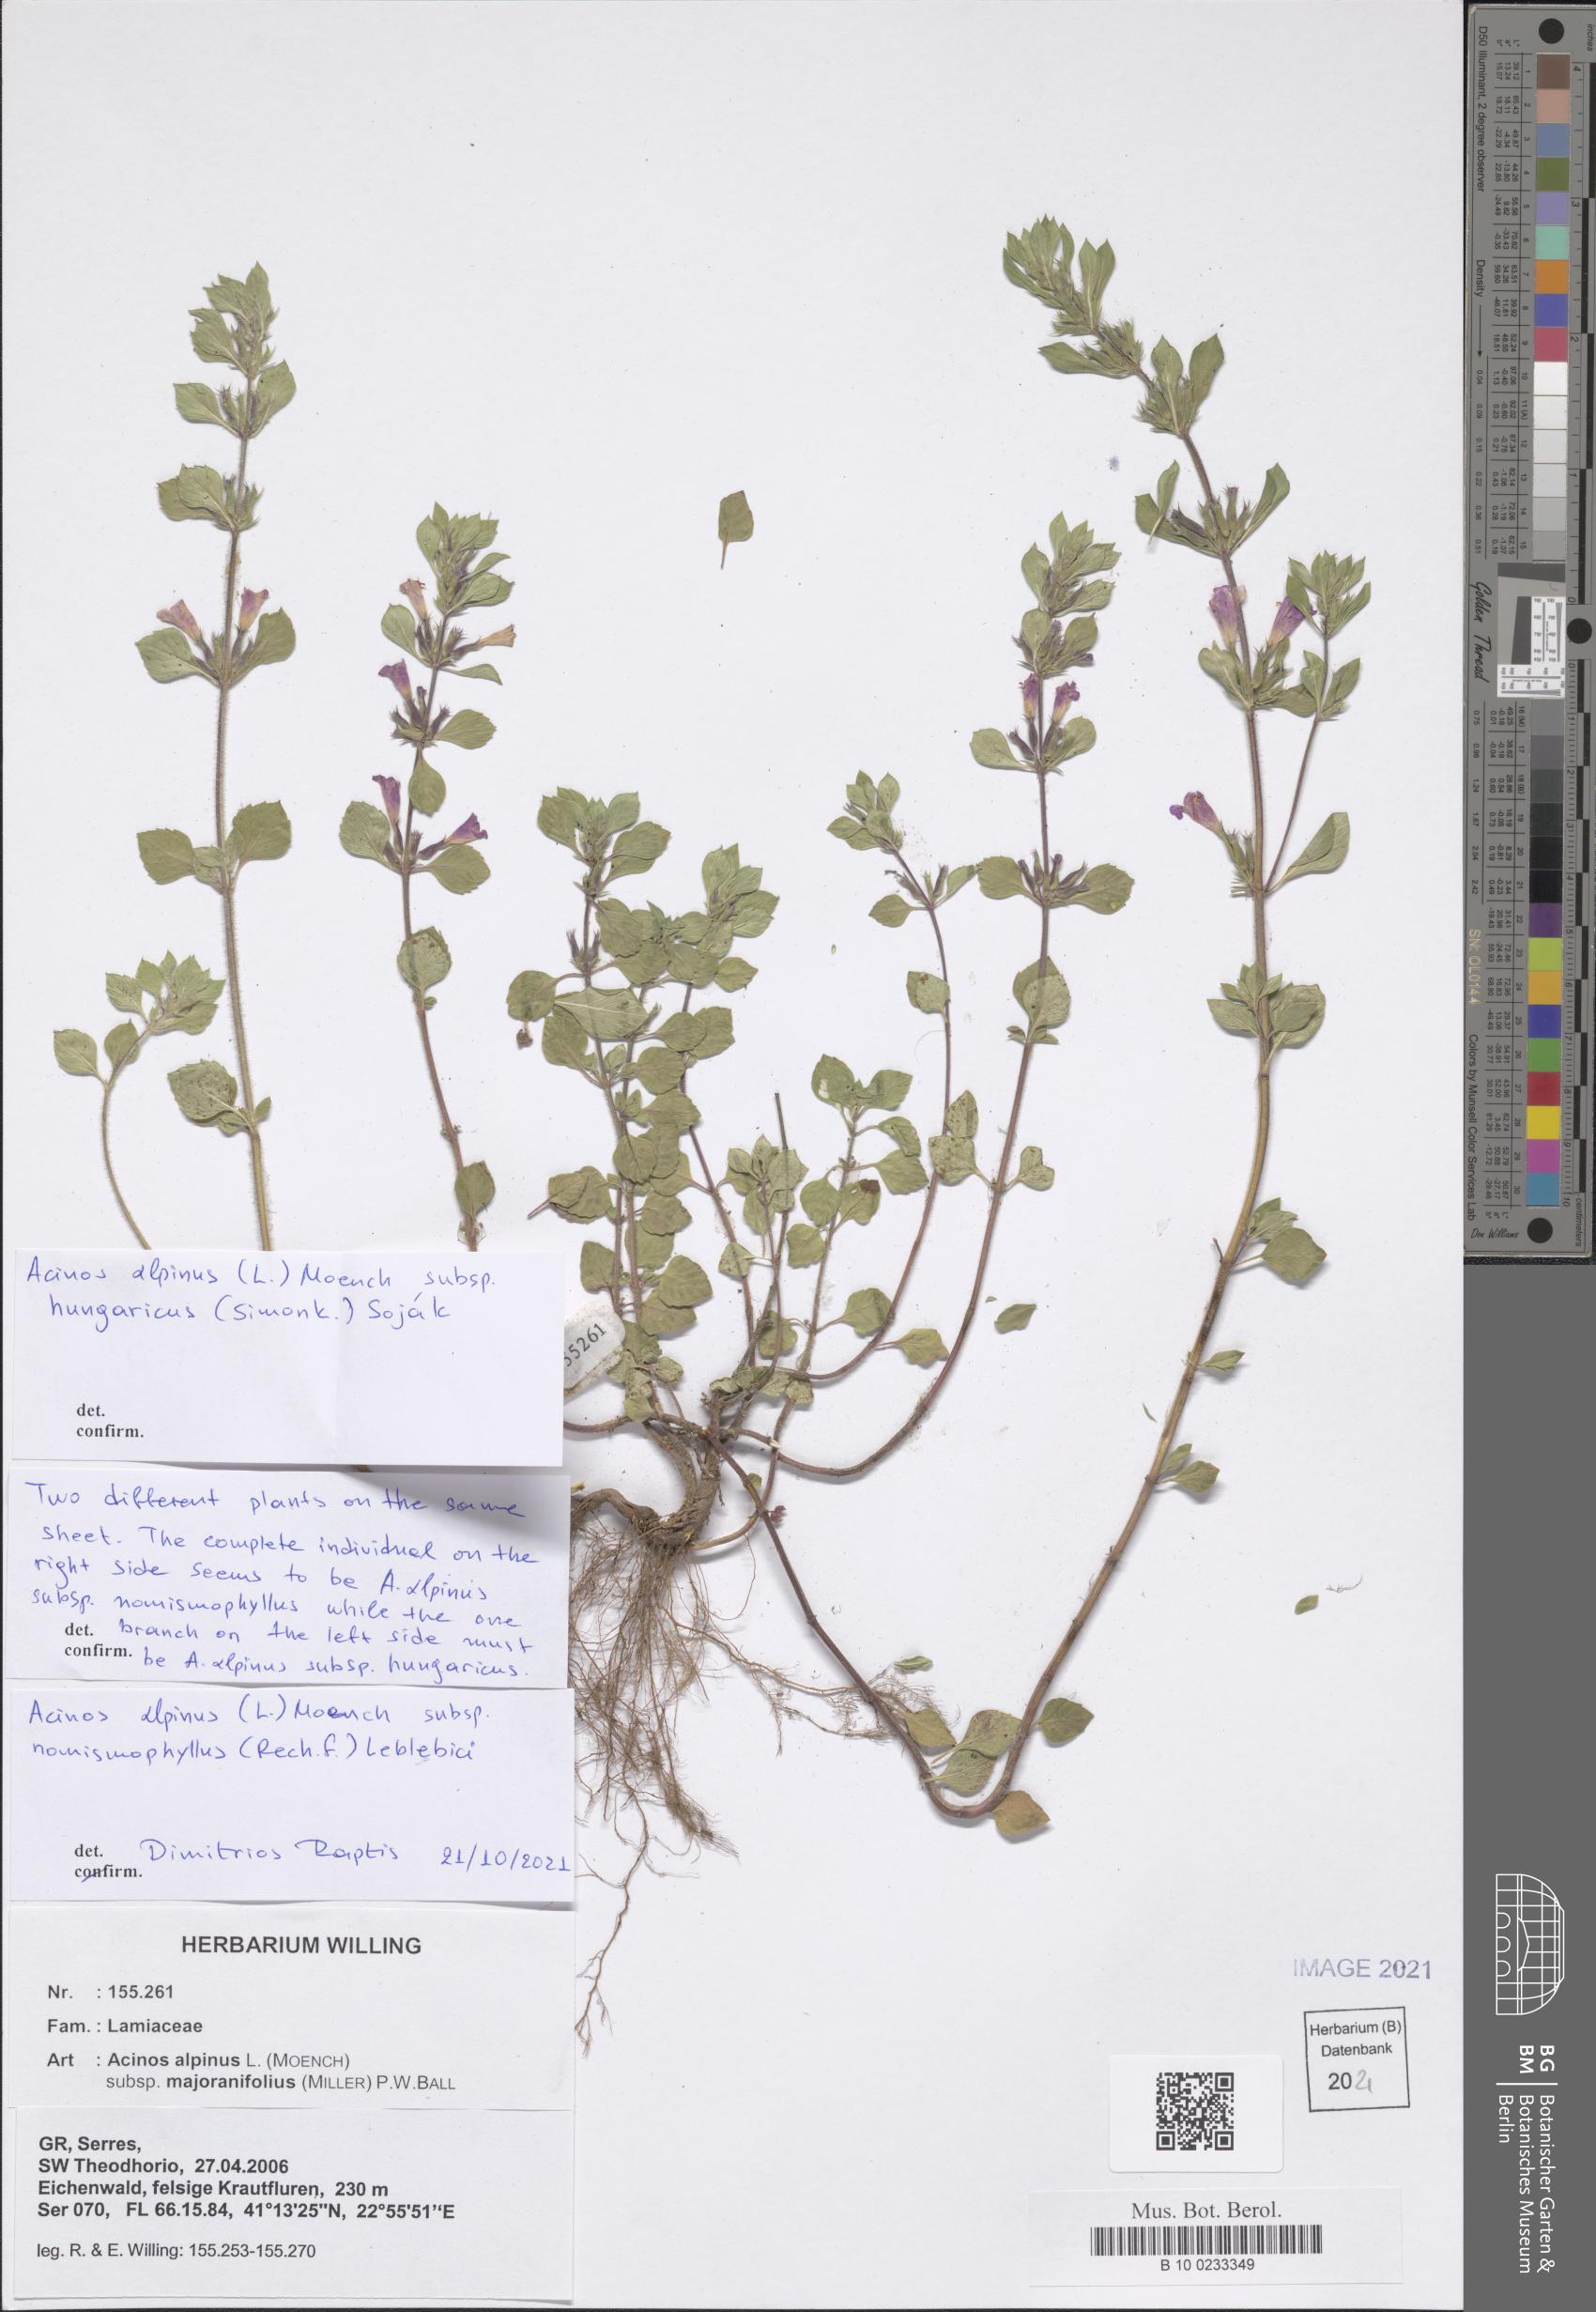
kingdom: Plantae
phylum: Tracheophyta
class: Magnoliopsida
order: Lamiales
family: Lamiaceae
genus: Clinopodium
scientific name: Clinopodium alpinum
